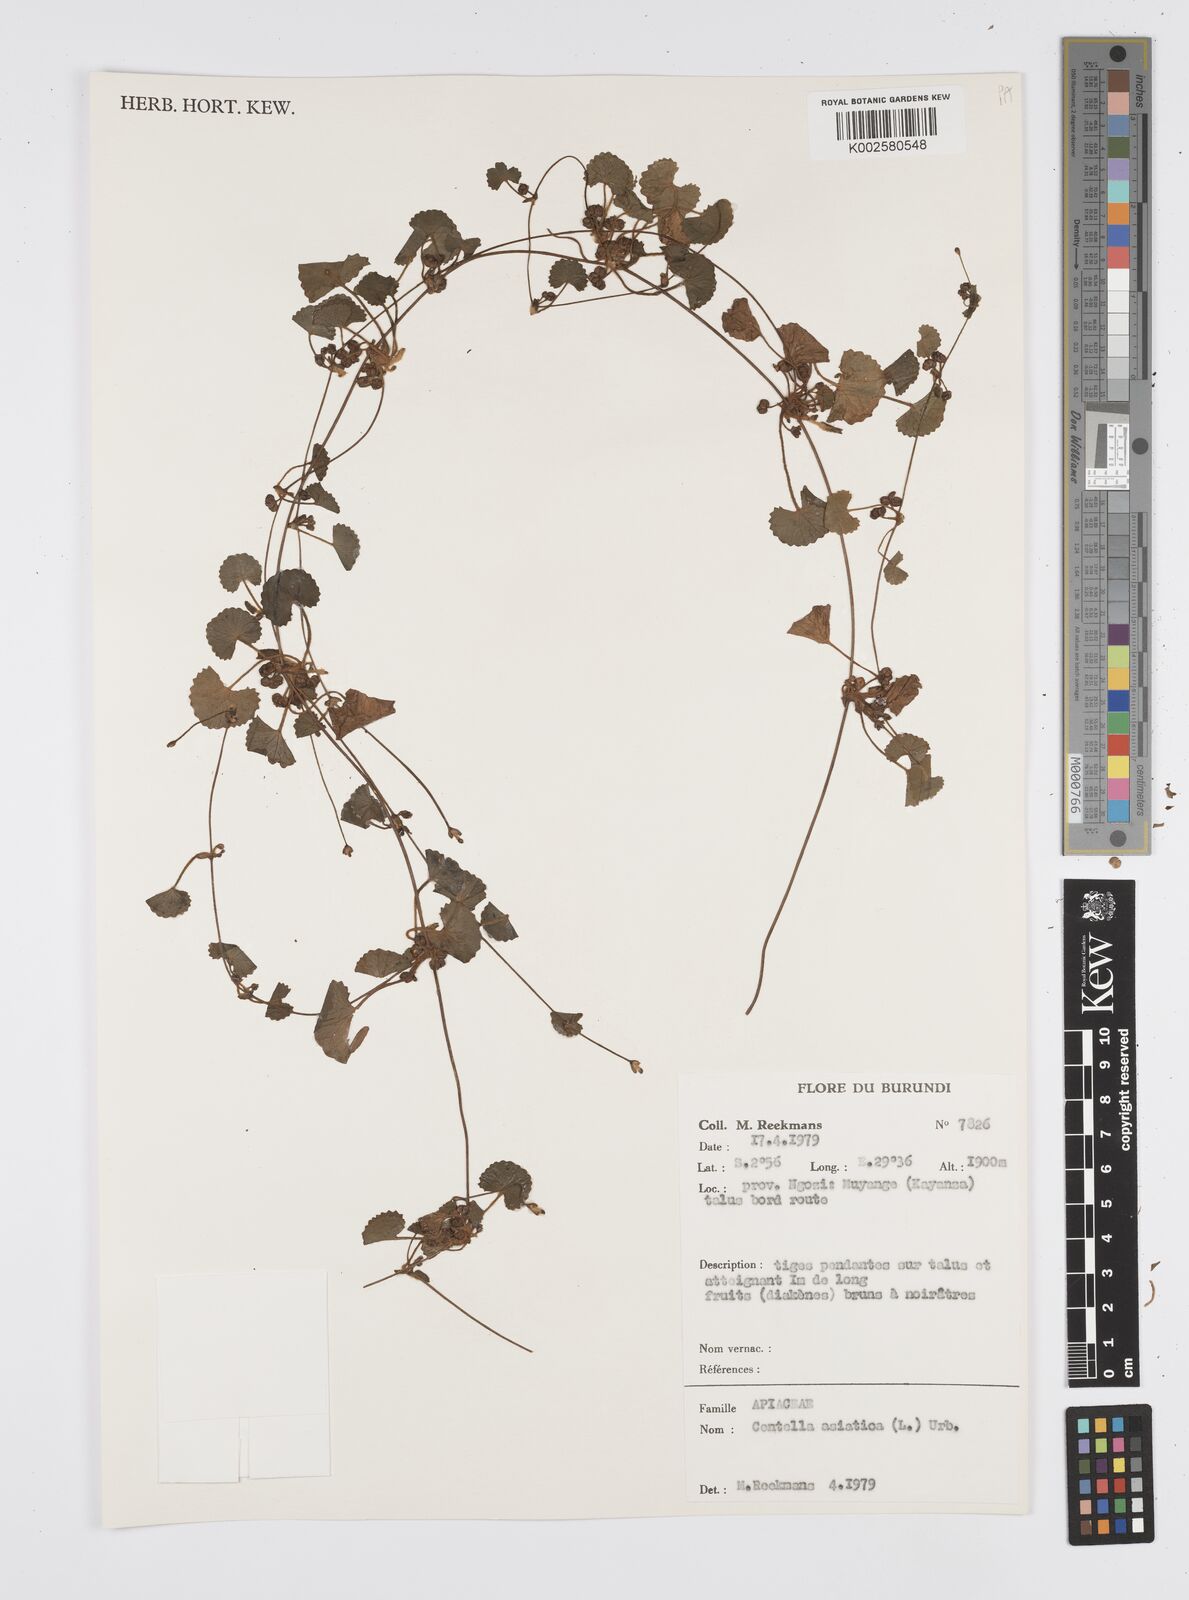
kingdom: Plantae
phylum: Tracheophyta
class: Magnoliopsida
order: Apiales
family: Apiaceae
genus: Centella
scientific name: Centella asiatica
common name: Spadeleaf
